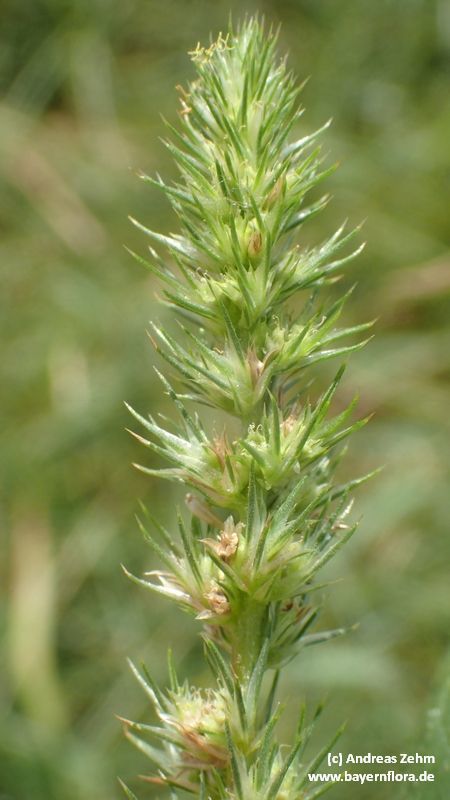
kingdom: Plantae
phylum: Tracheophyta
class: Magnoliopsida
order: Caryophyllales
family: Amaranthaceae
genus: Amaranthus
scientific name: Amaranthus powellii
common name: Powell's amaranth
